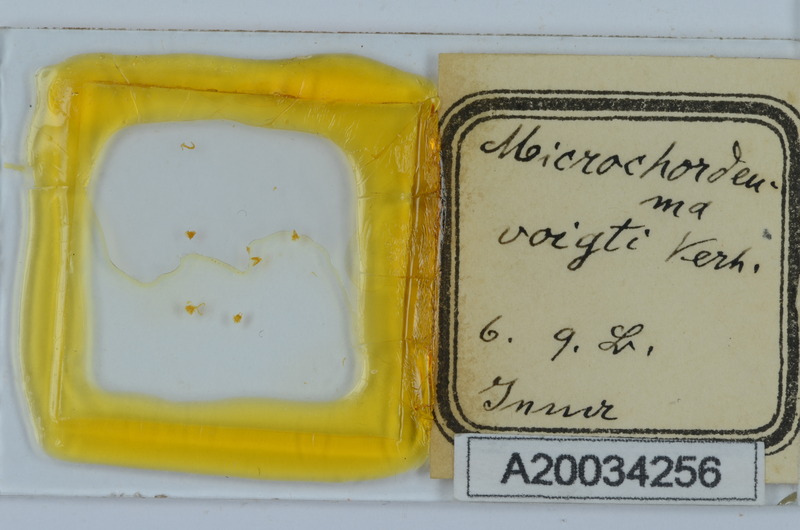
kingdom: Animalia
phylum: Arthropoda
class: Diplopoda
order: Chordeumatida
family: Chordeumatidae
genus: Melogona
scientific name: Melogona voigtii
